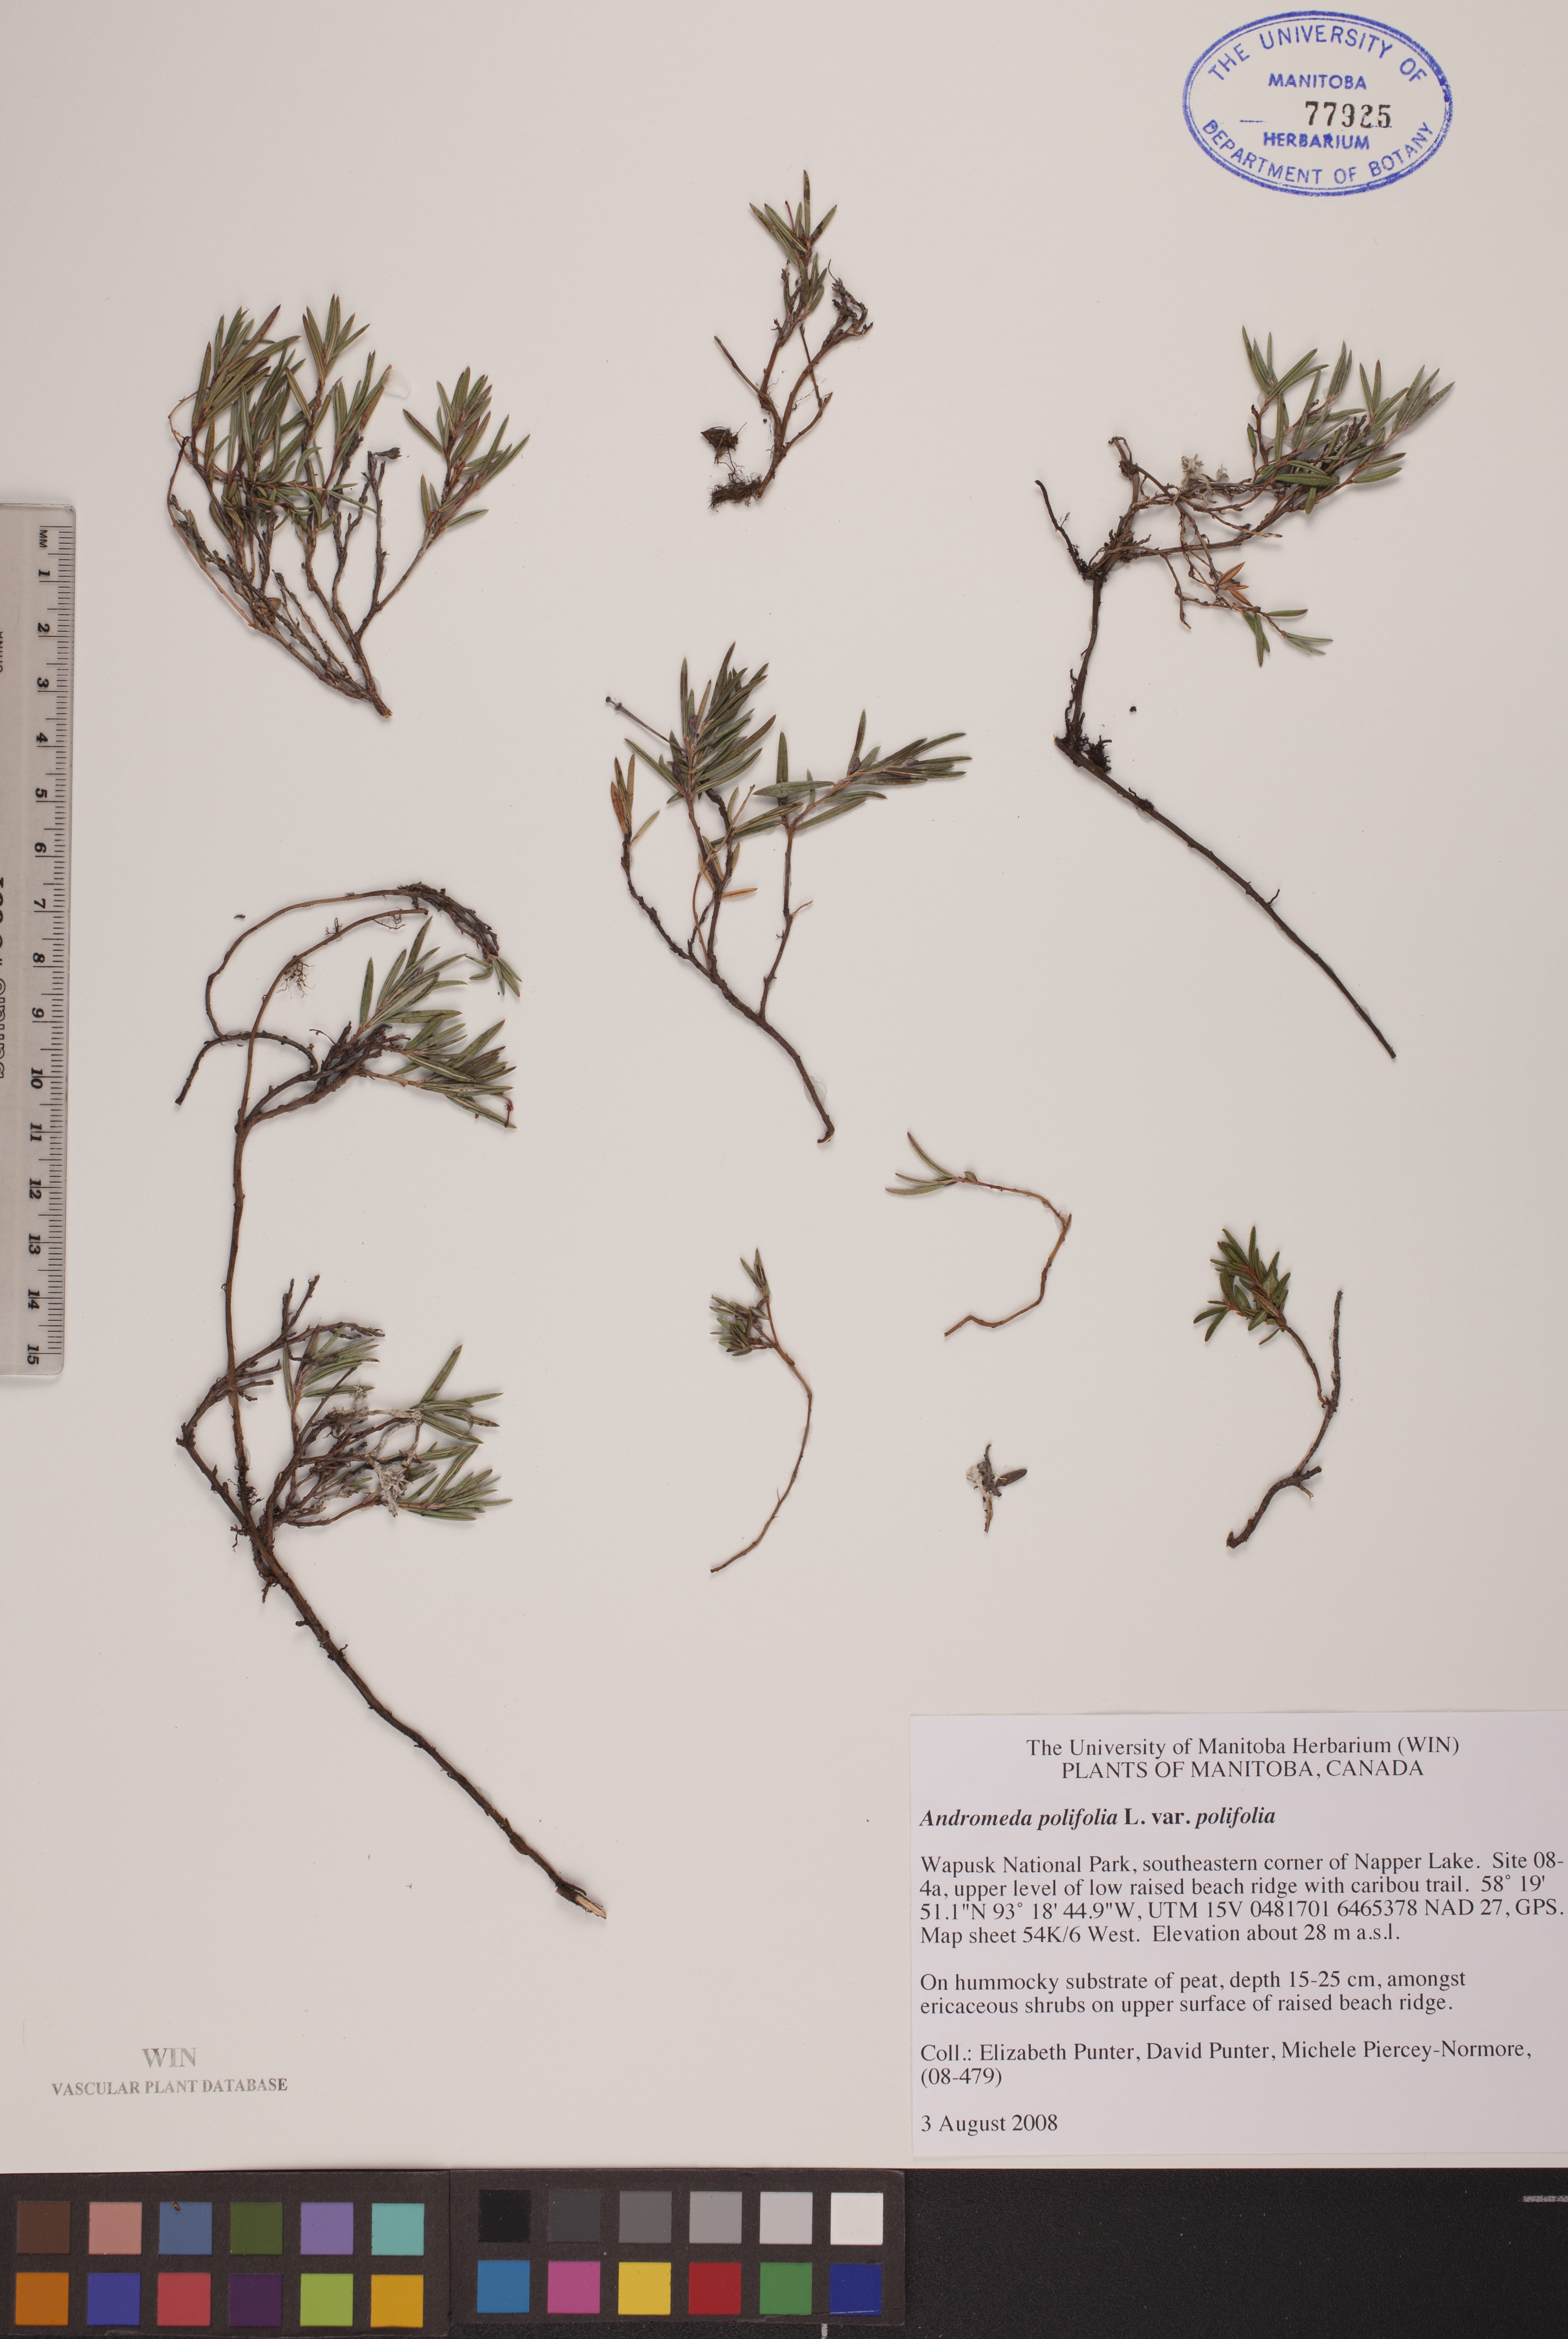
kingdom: Plantae
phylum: Tracheophyta
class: Magnoliopsida
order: Ericales
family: Ericaceae
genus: Andromeda
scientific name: Andromeda polifolia
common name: Bog-rosemary
